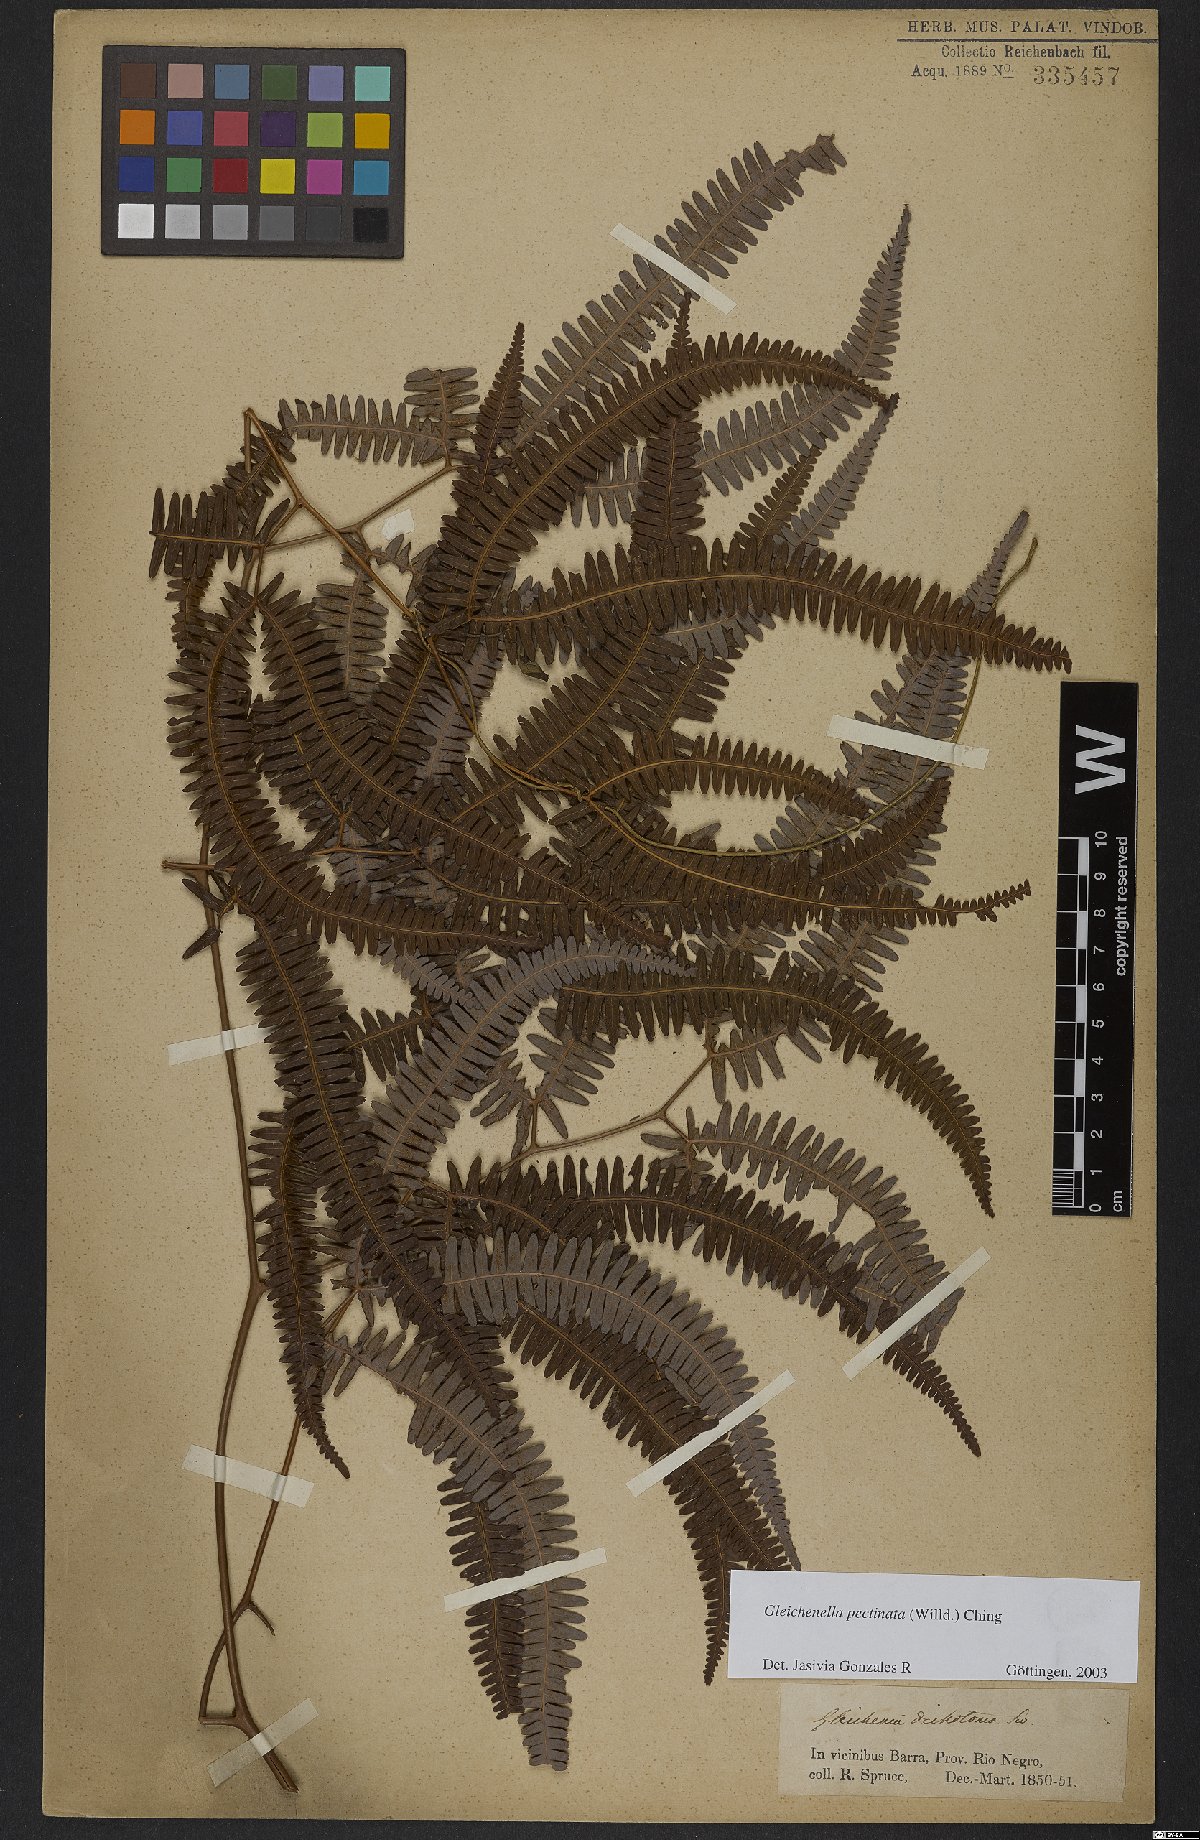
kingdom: Plantae
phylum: Tracheophyta
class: Polypodiopsida
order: Gleicheniales
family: Gleicheniaceae
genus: Gleichenella
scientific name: Gleichenella pectinata
